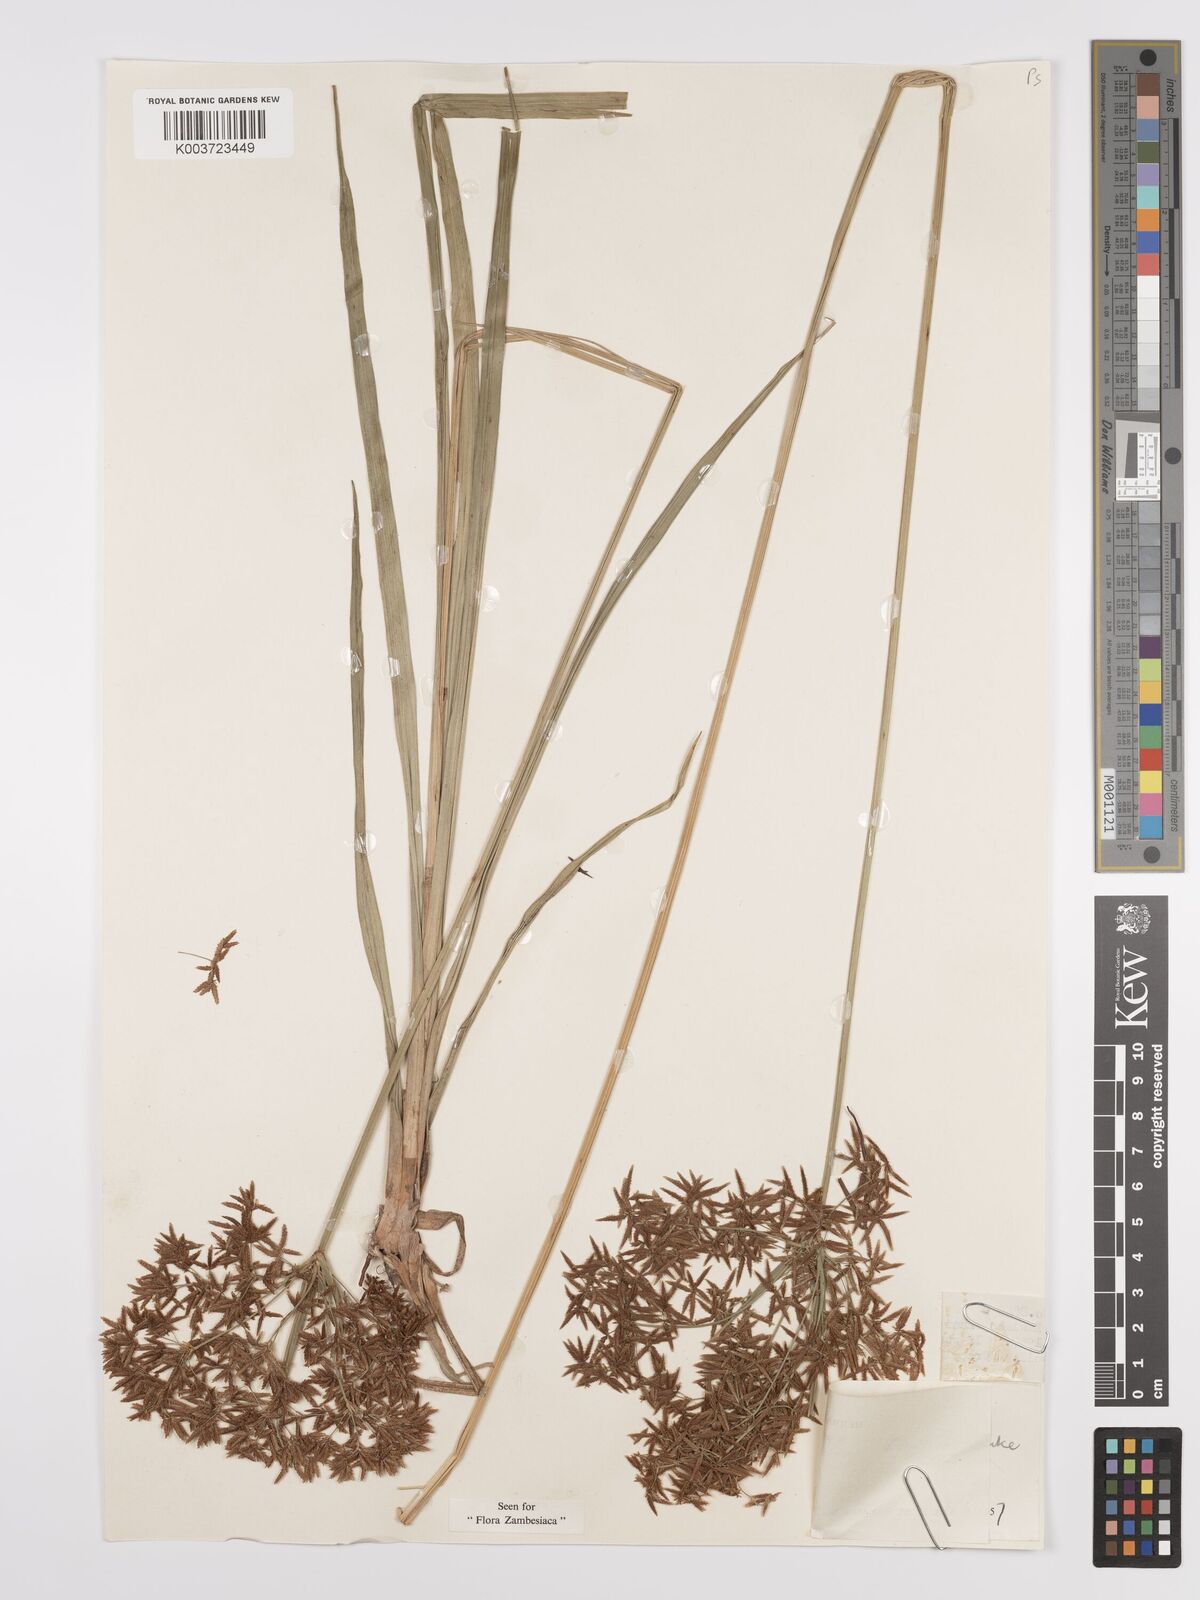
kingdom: Plantae
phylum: Tracheophyta
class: Liliopsida
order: Poales
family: Cyperaceae
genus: Cyperus
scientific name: Cyperus aureobrunneus
